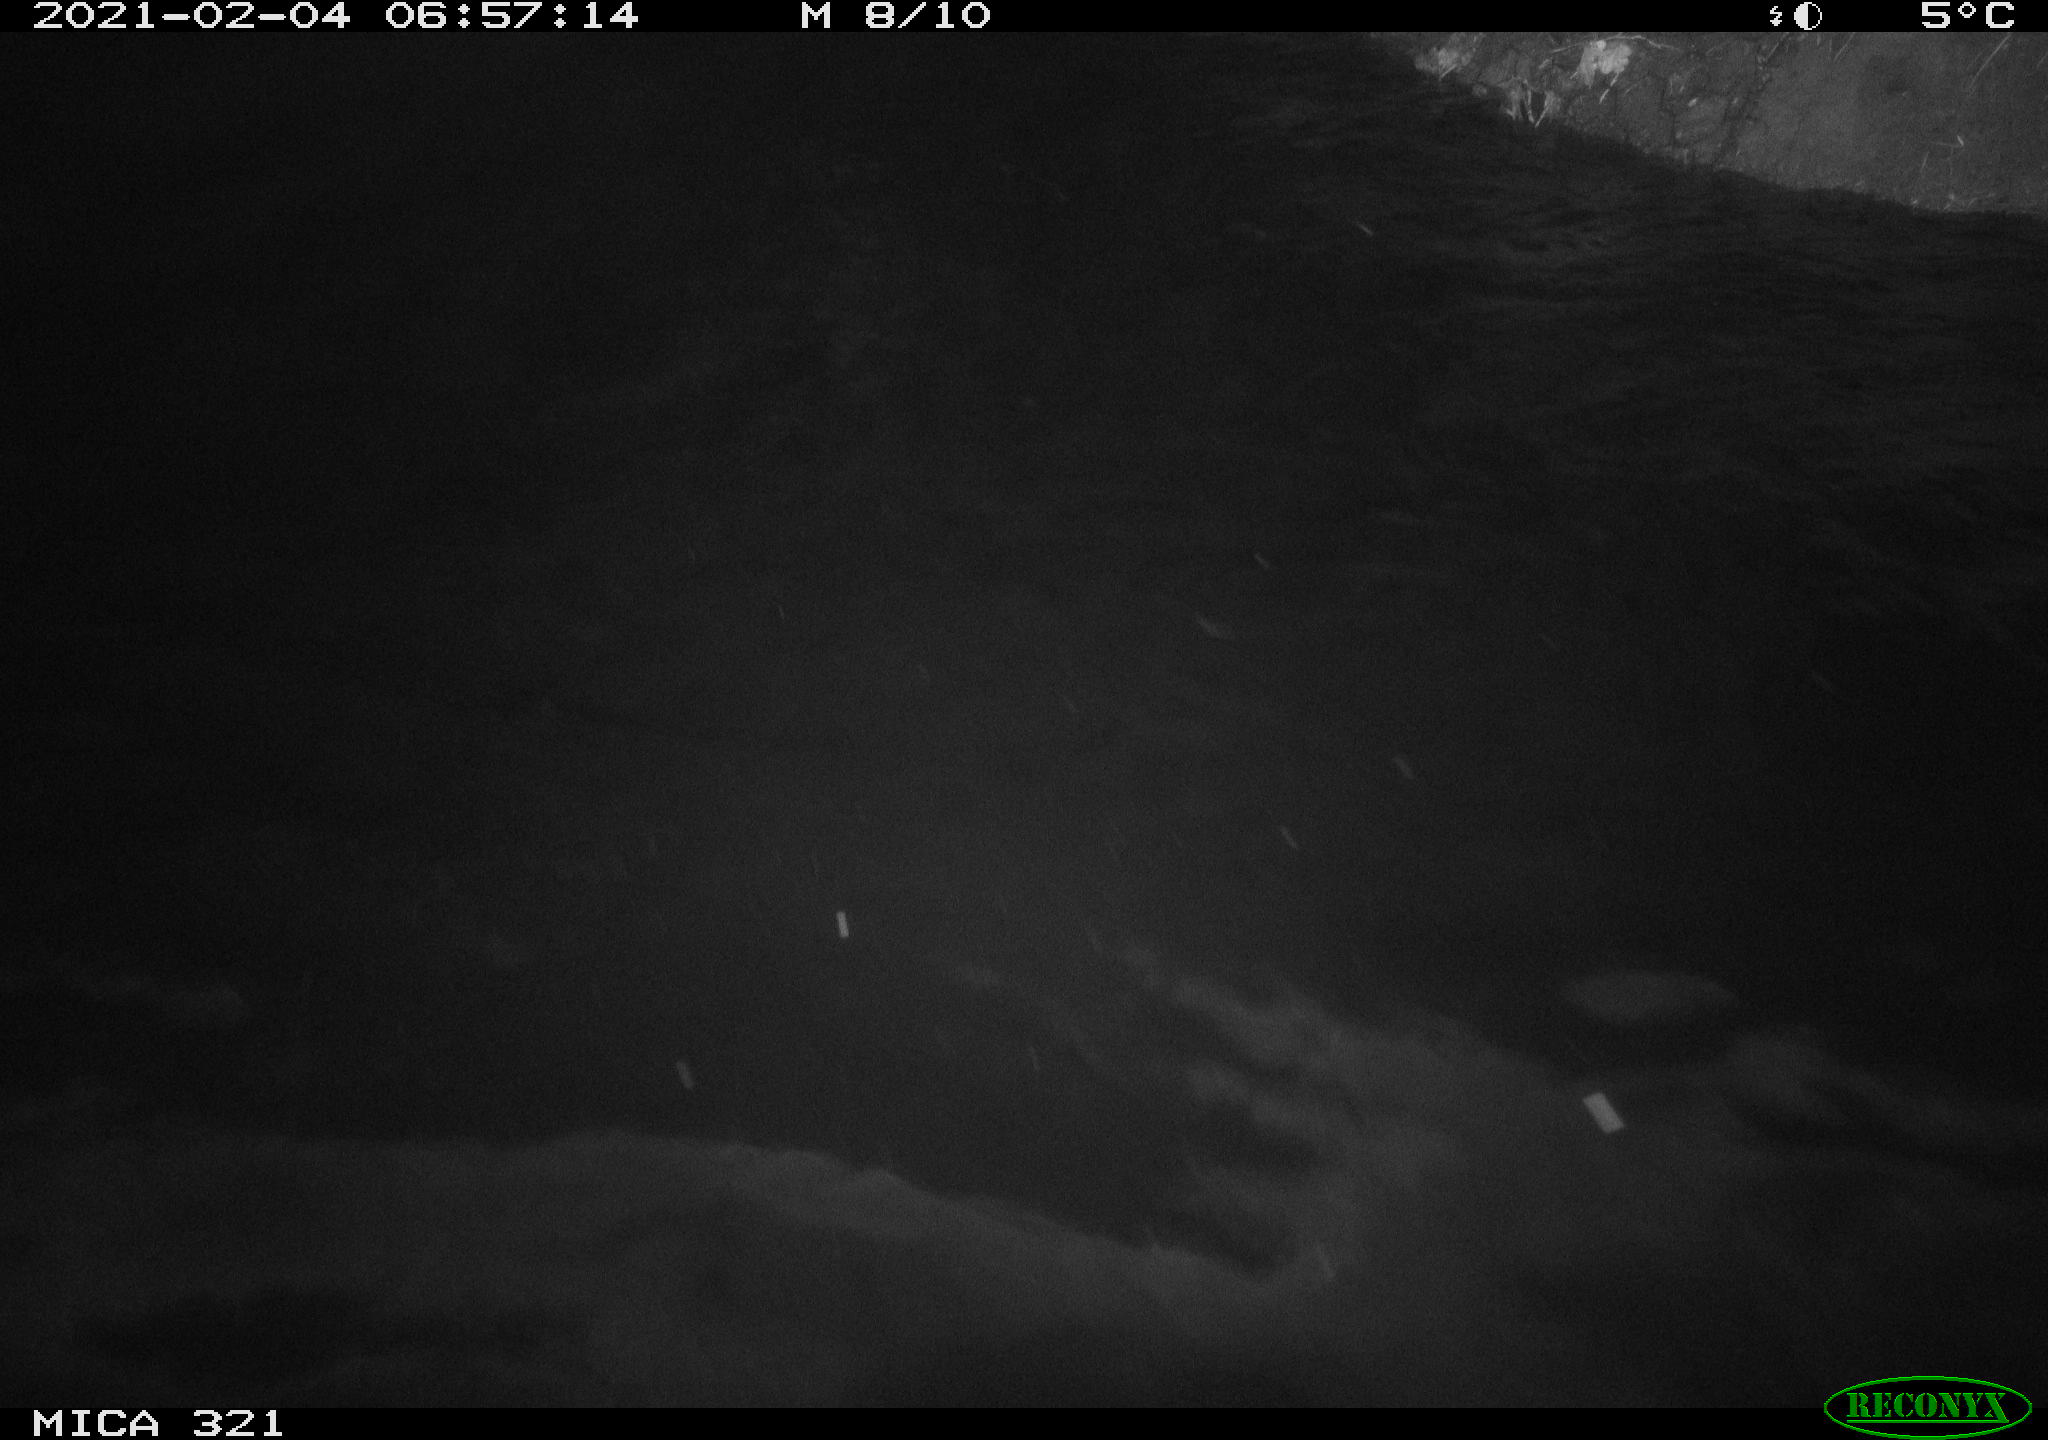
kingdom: Animalia
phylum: Chordata
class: Aves
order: Anseriformes
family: Anatidae
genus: Anas
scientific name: Anas platyrhynchos
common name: Mallard
